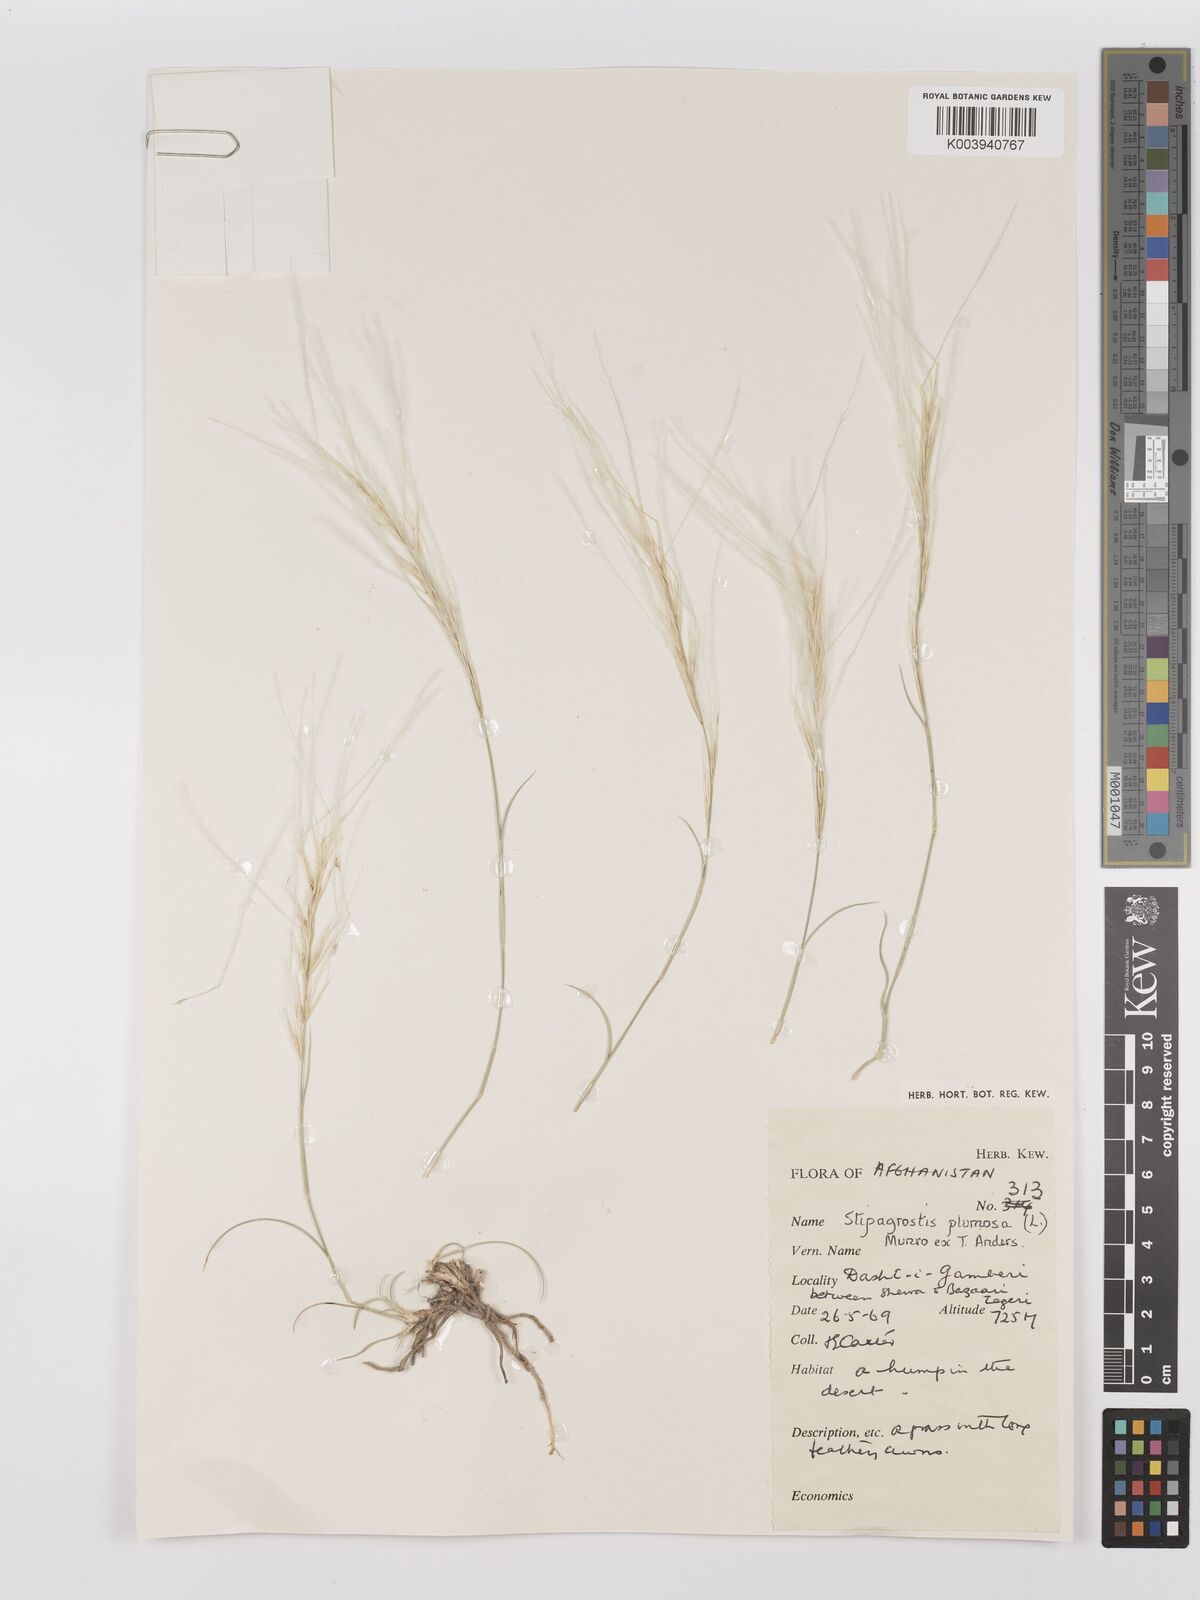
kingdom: Plantae
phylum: Tracheophyta
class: Liliopsida
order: Poales
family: Poaceae
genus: Stipagrostis
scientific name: Stipagrostis plumosa
